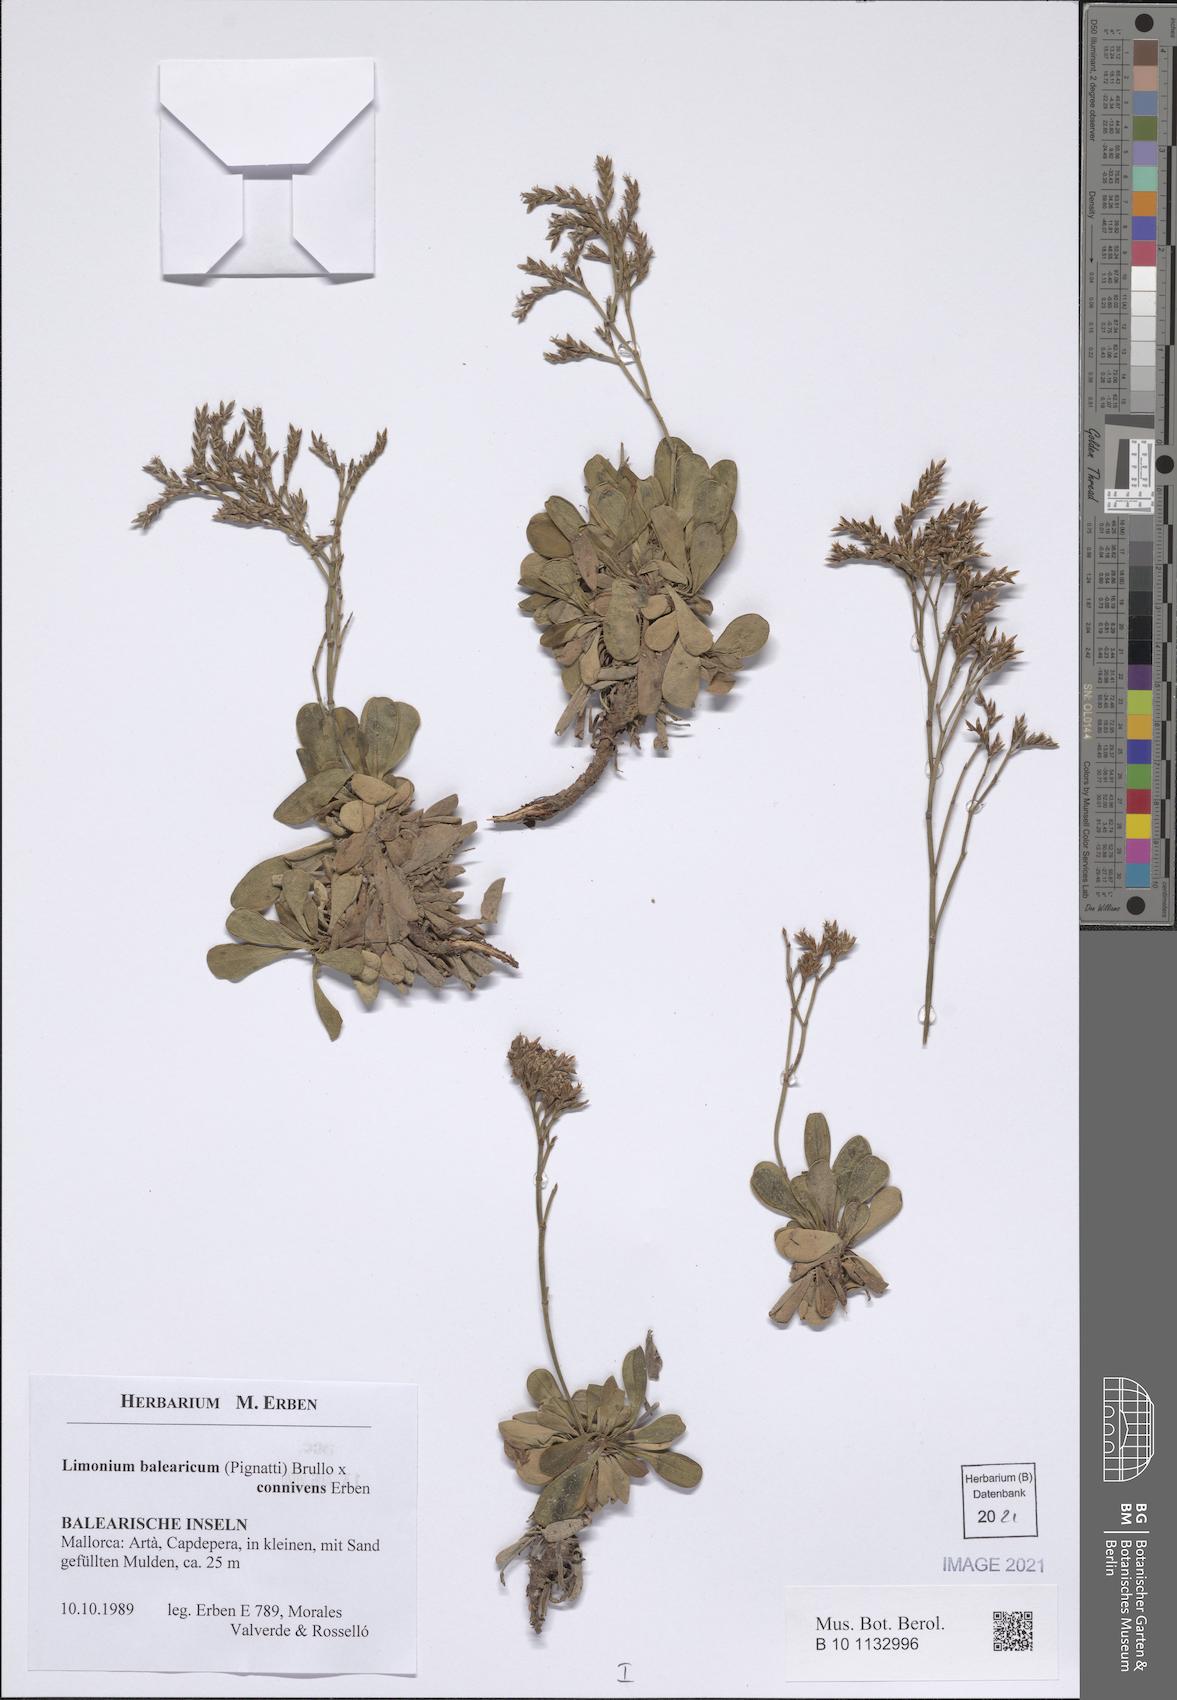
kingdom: Plantae
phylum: Tracheophyta
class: Magnoliopsida
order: Caryophyllales
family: Plumbaginaceae
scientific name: Plumbaginaceae
